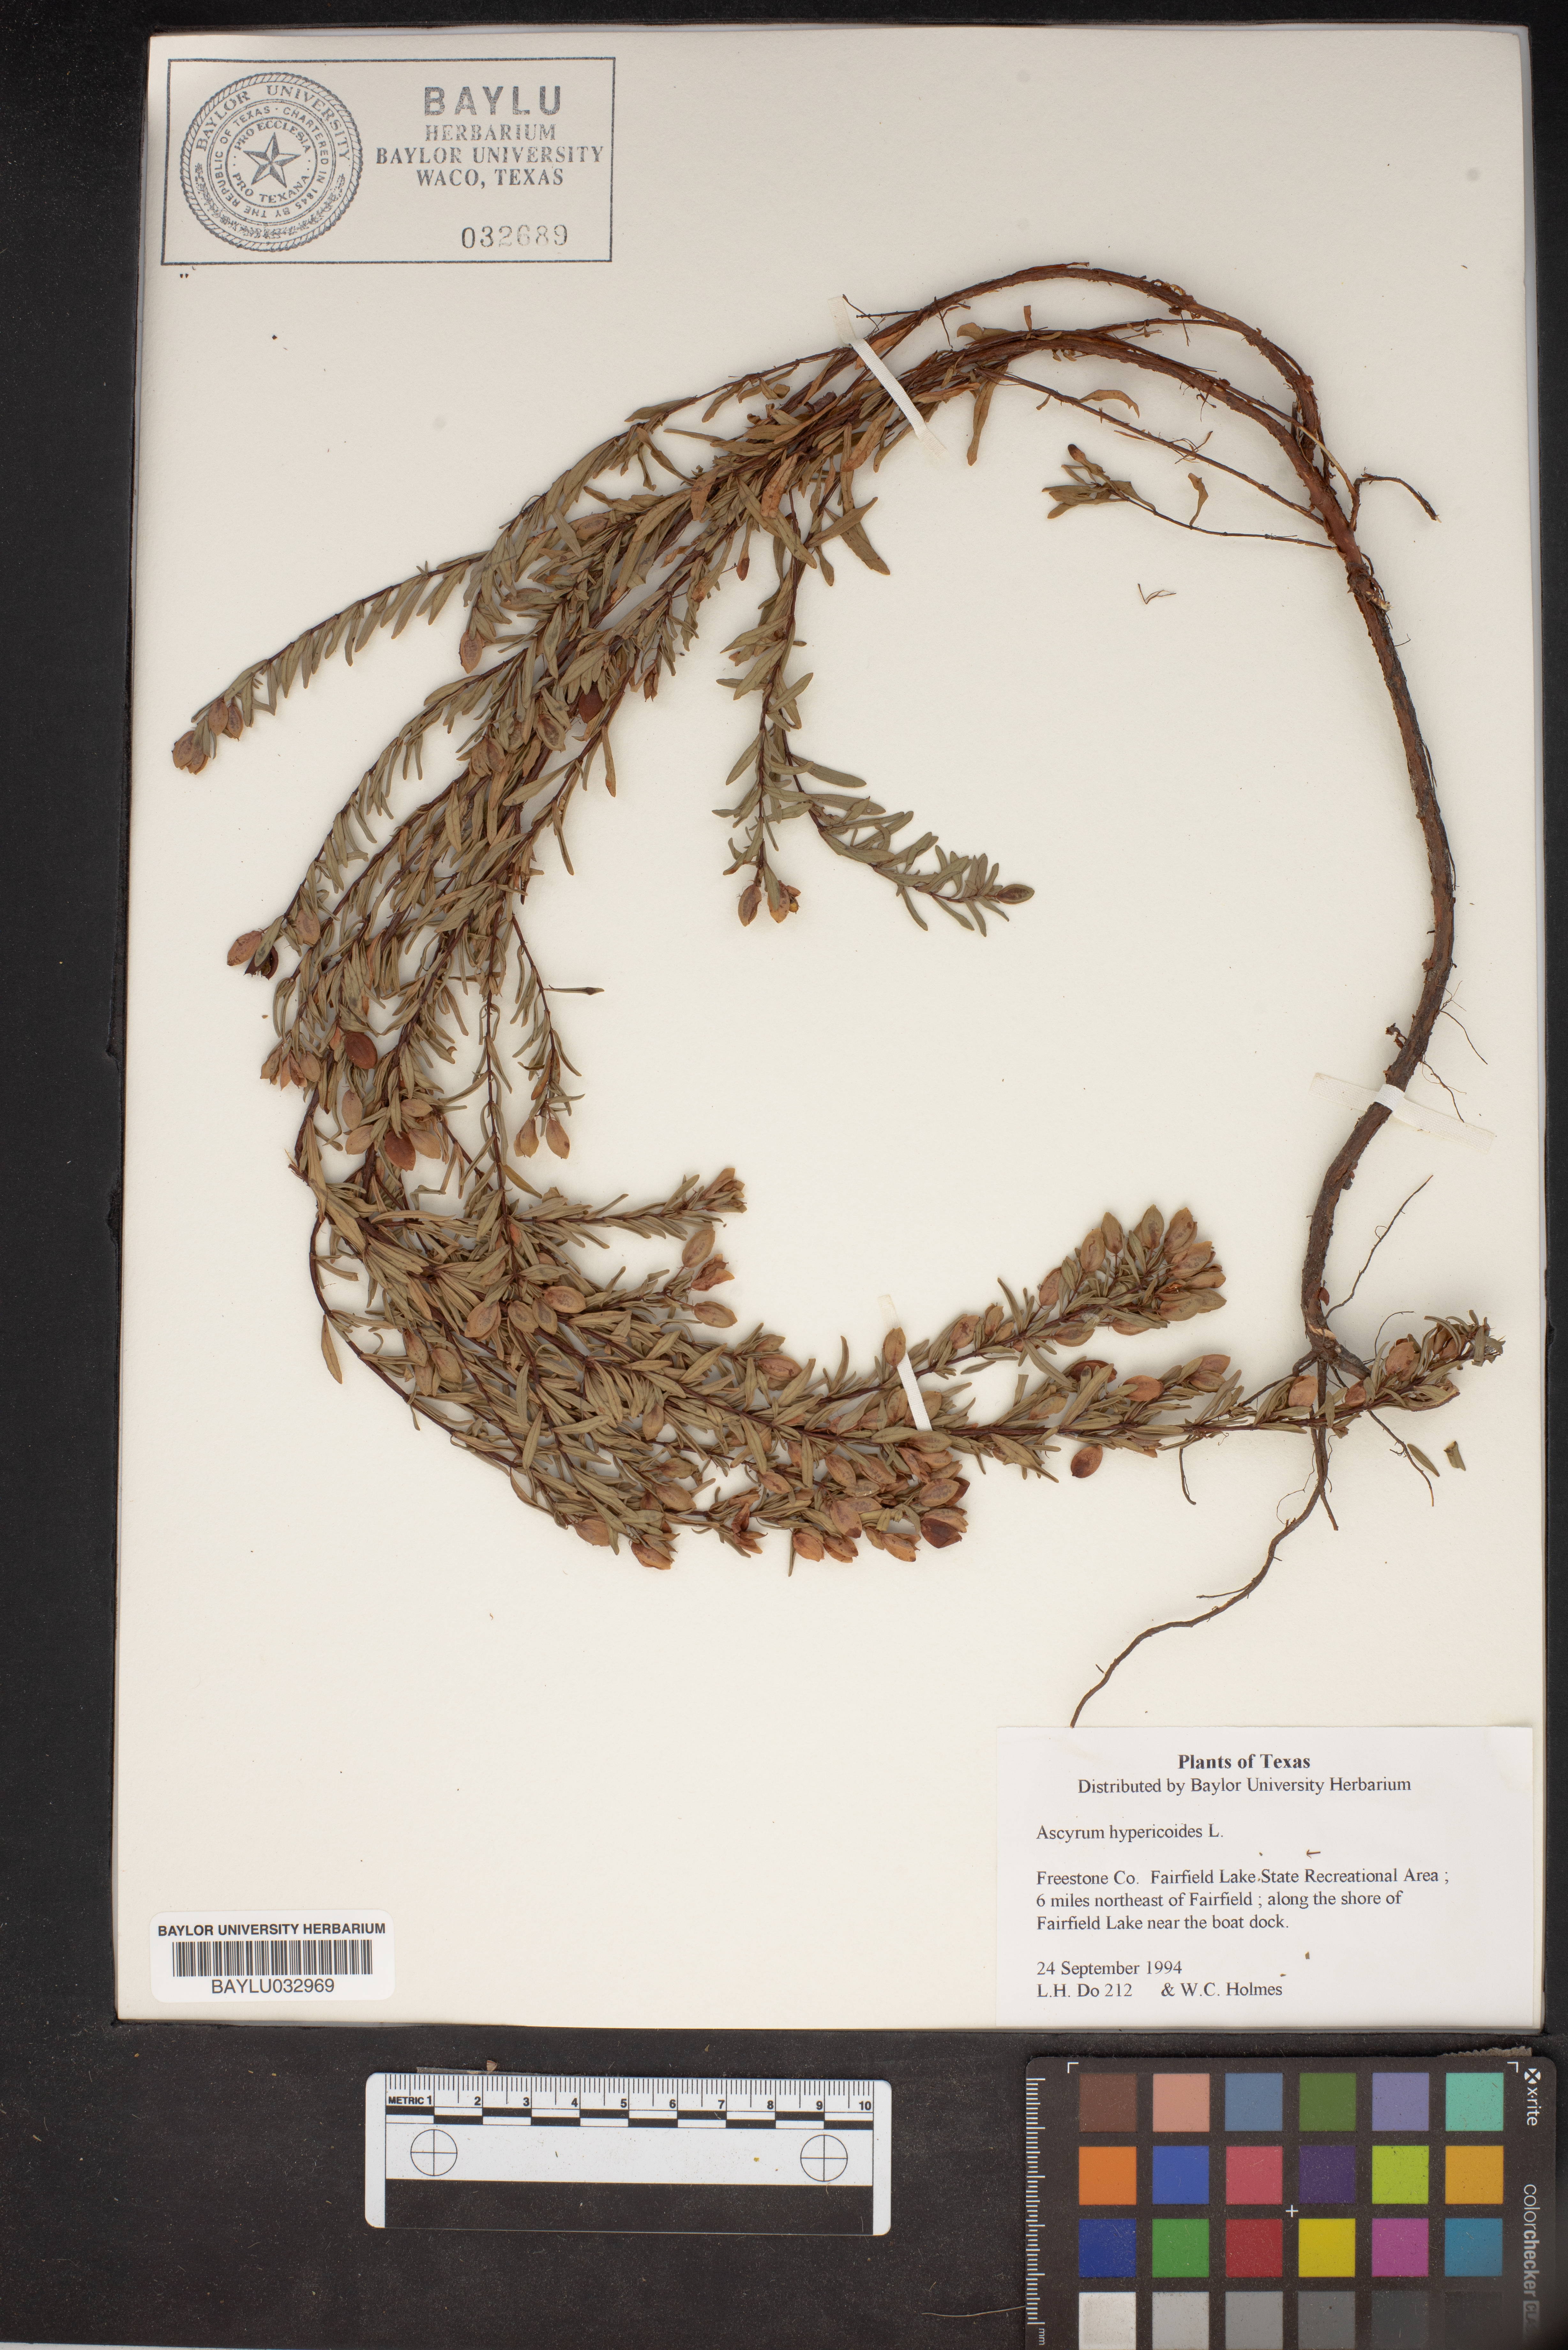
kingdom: Plantae
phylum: Tracheophyta
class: Magnoliopsida
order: Malpighiales
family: Hypericaceae
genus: Hypericum
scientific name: Hypericum hypericoides
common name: St. andrew's cross
